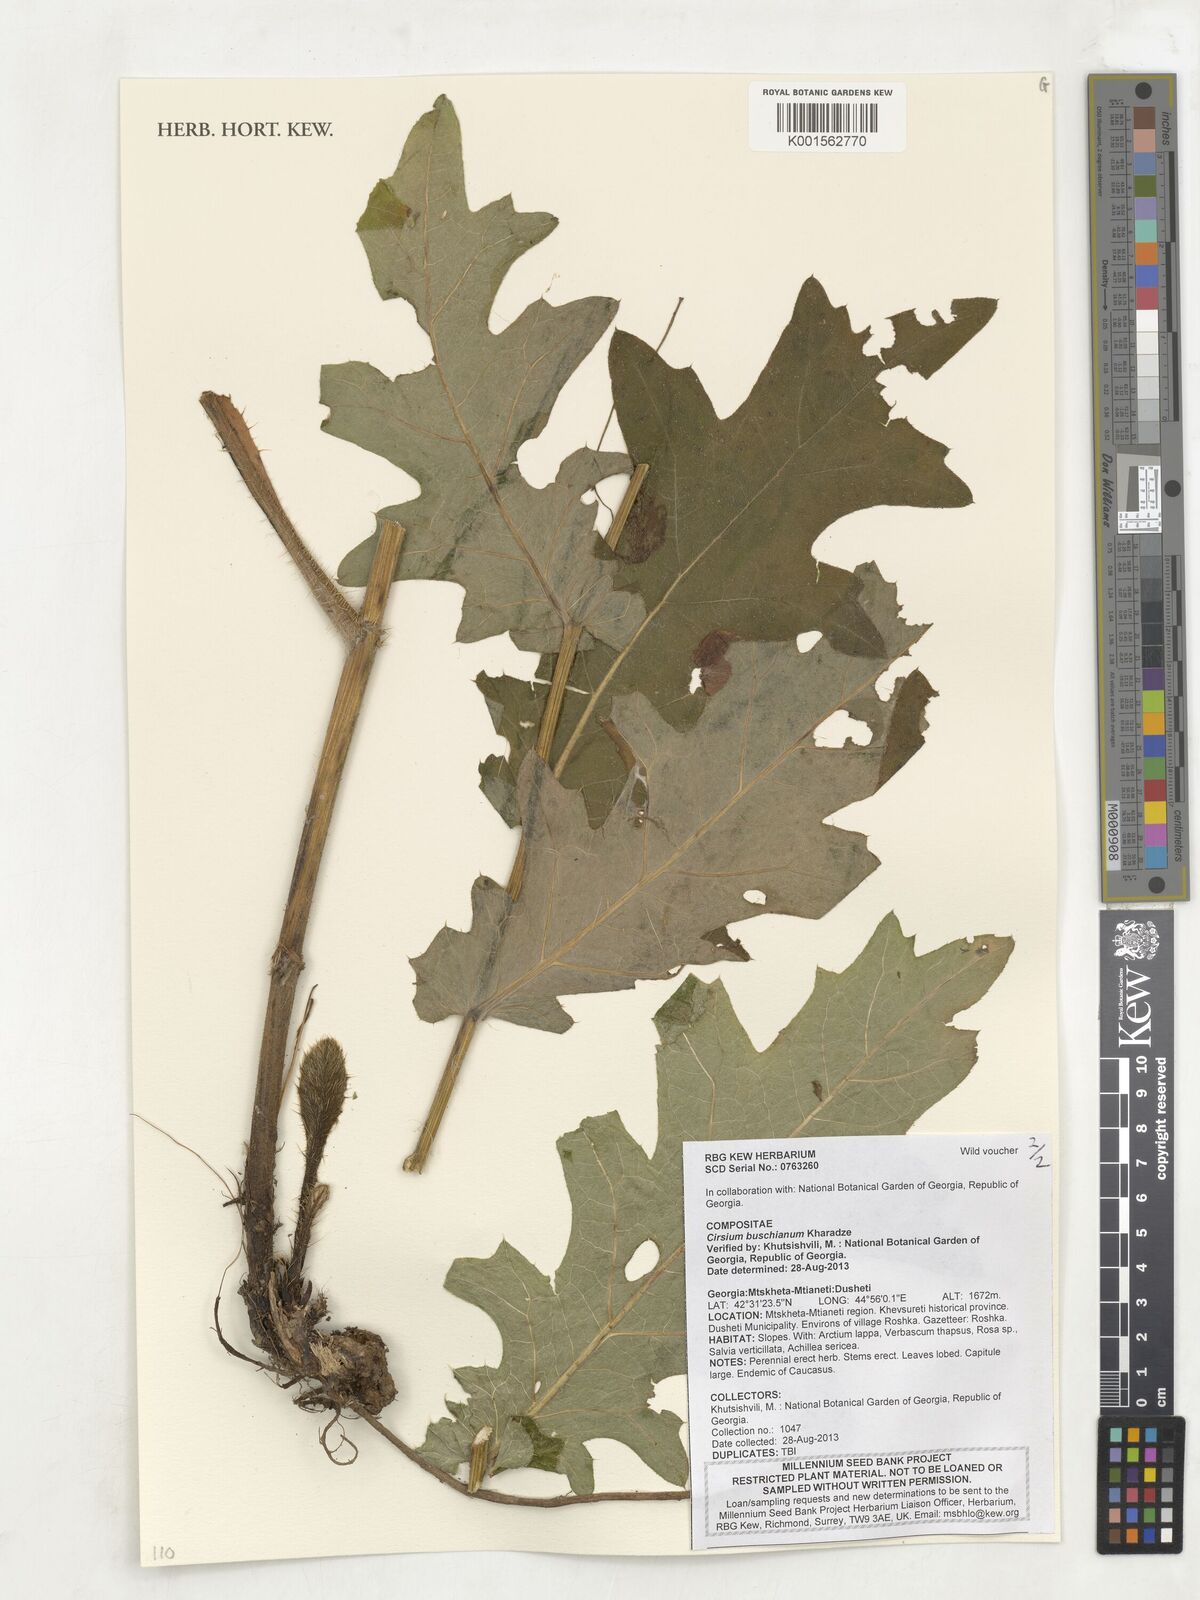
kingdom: Plantae
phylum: Tracheophyta
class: Magnoliopsida
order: Asterales
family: Asteraceae
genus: Cirsium
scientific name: Cirsium pubigerum
